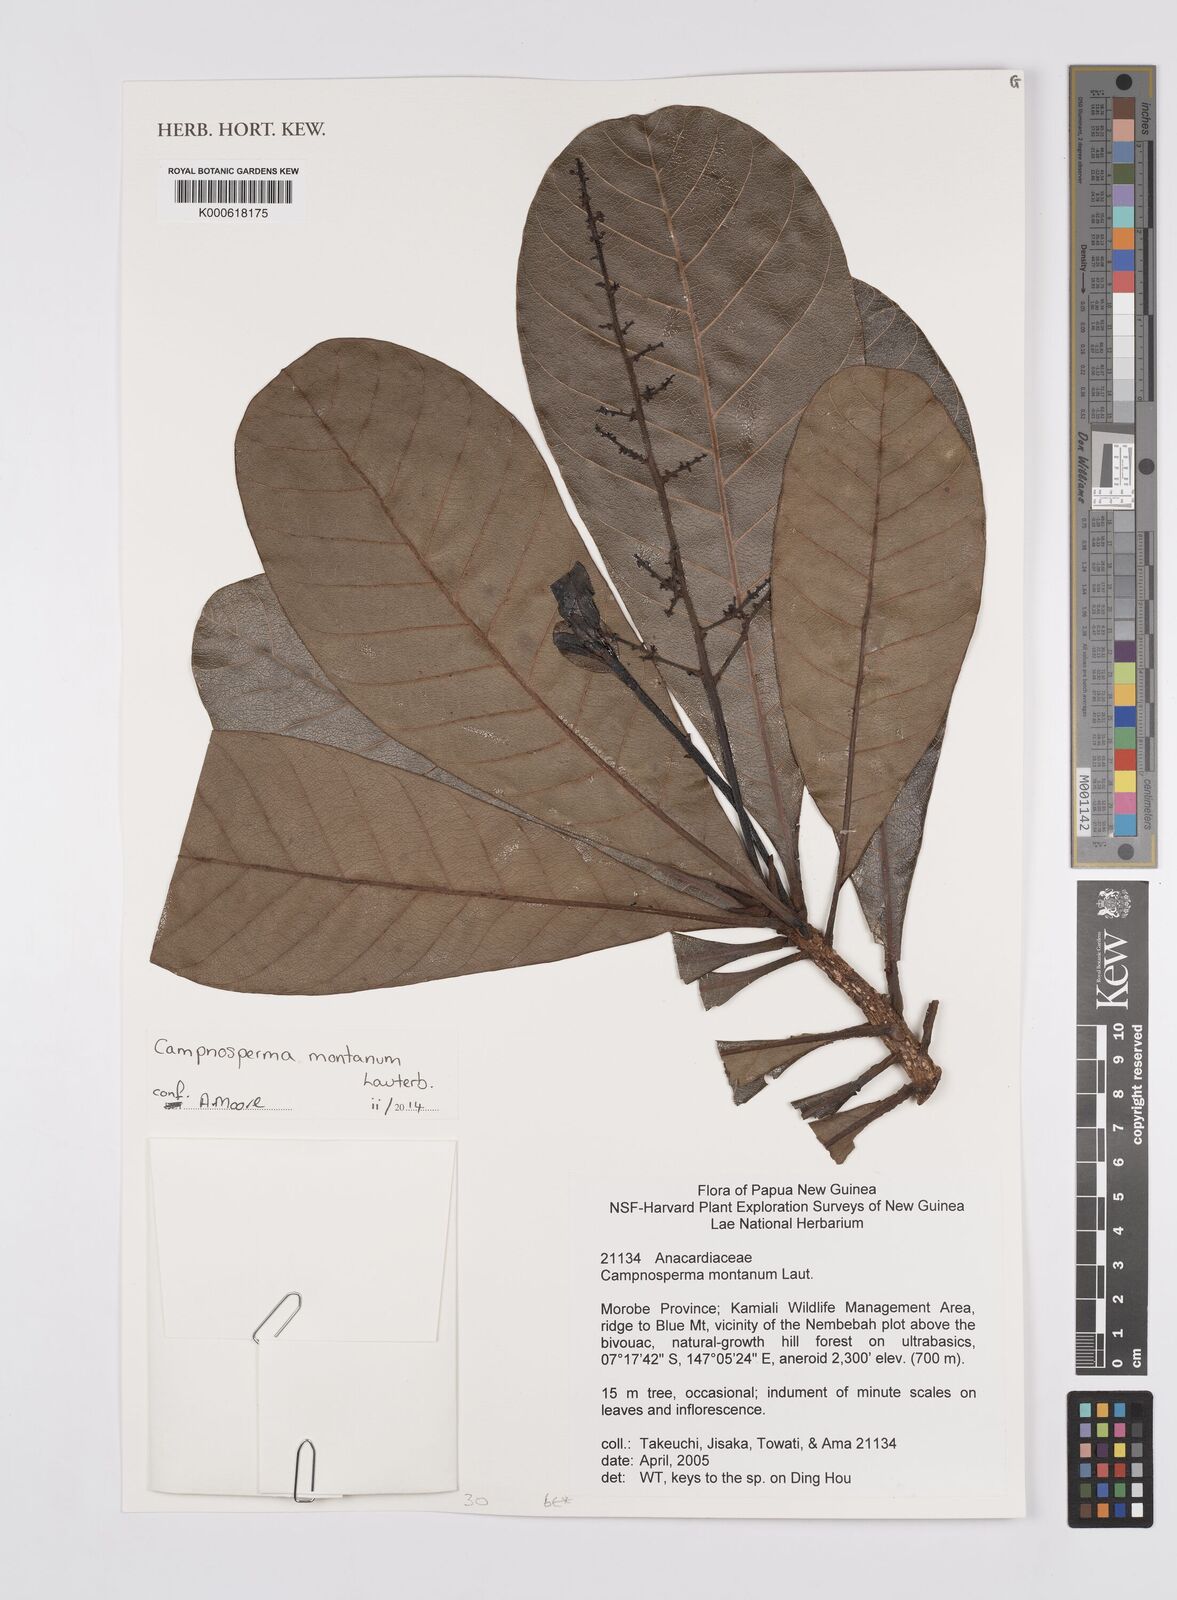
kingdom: Plantae
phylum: Tracheophyta
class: Magnoliopsida
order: Sapindales
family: Anacardiaceae
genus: Campnosperma
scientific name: Campnosperma montanum
